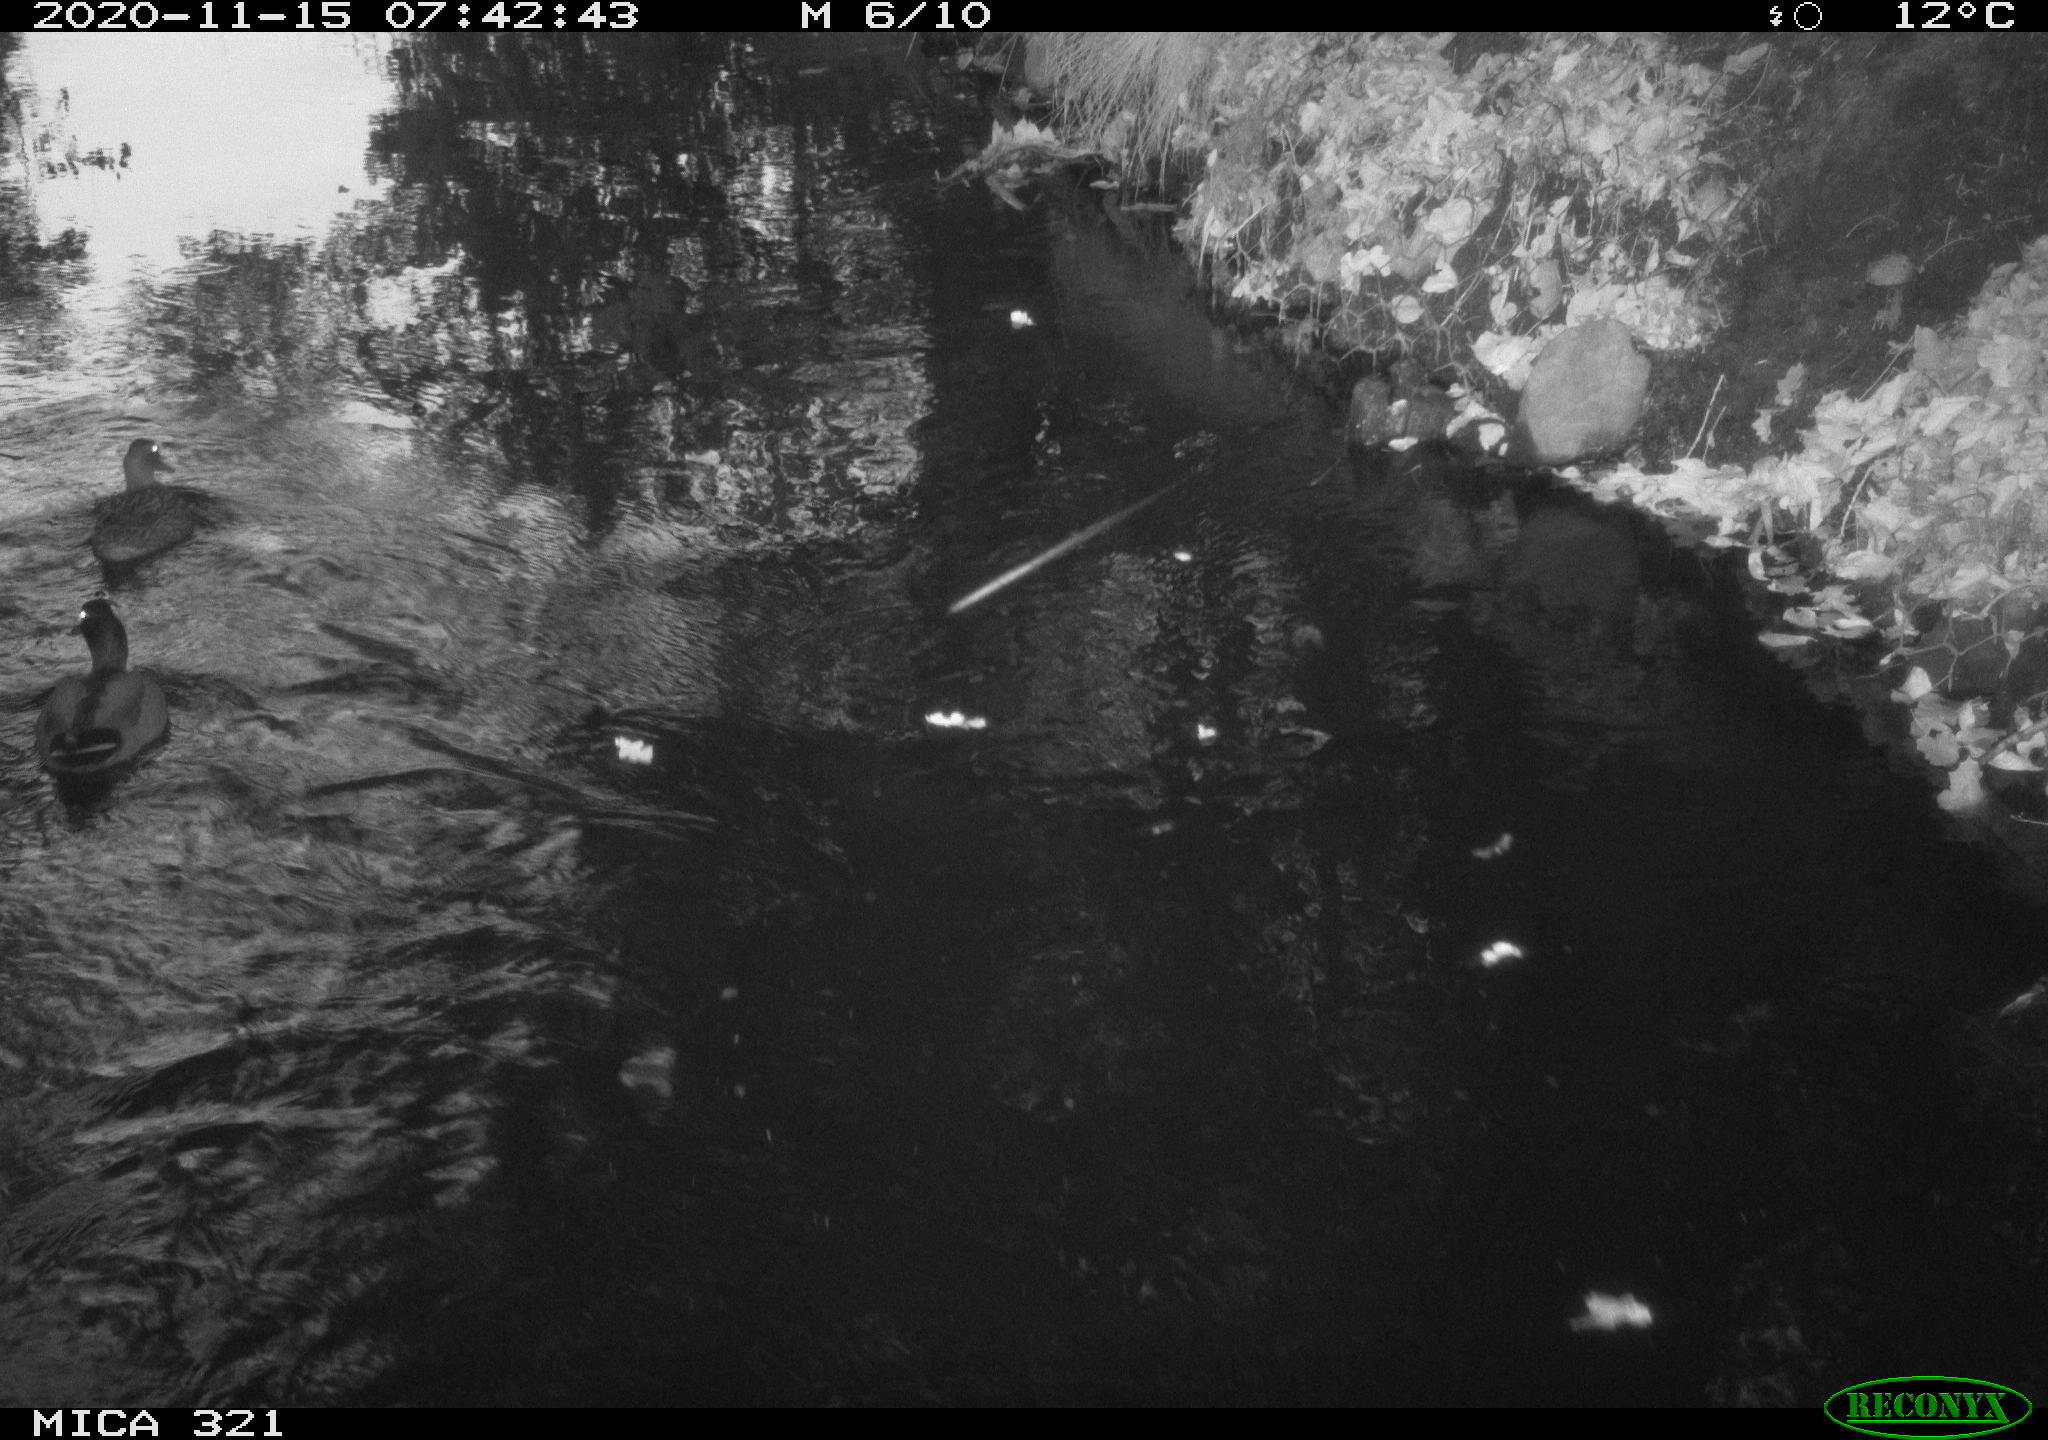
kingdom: Animalia
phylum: Chordata
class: Aves
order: Anseriformes
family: Anatidae
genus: Anas
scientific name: Anas platyrhynchos
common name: Mallard
